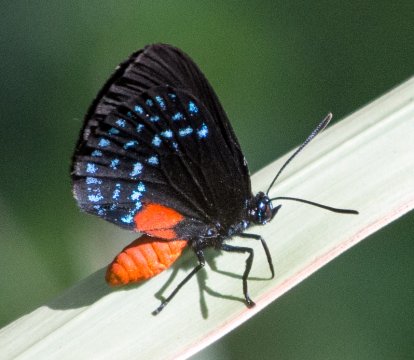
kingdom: Animalia
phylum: Arthropoda
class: Insecta
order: Lepidoptera
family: Lycaenidae
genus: Eumaeus
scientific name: Eumaeus atala
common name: Atala
